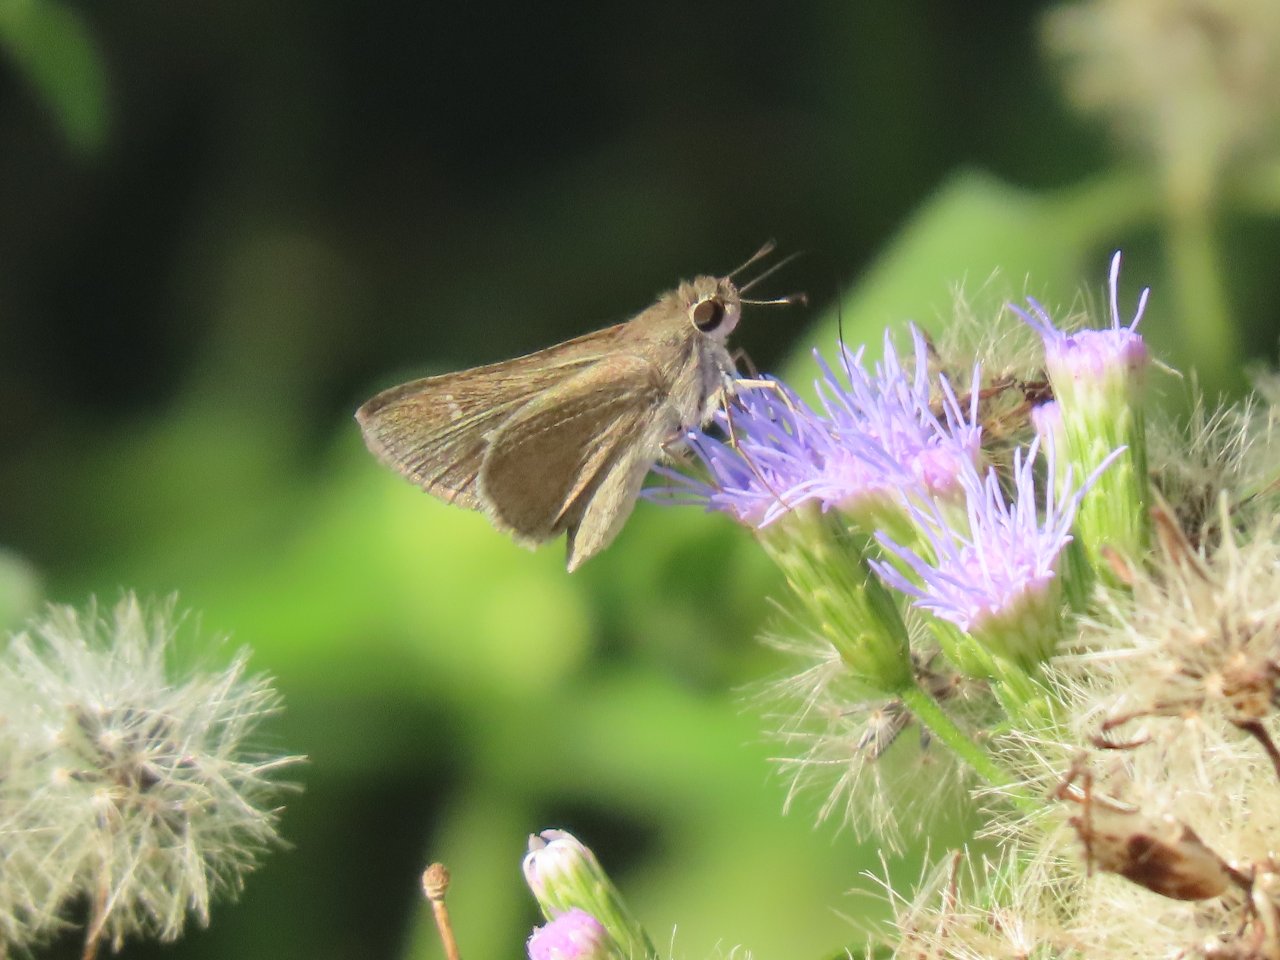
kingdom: Animalia
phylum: Arthropoda
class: Insecta
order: Lepidoptera
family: Hesperiidae
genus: Lerodea
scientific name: Lerodea eufala
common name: Eufala Skipper
